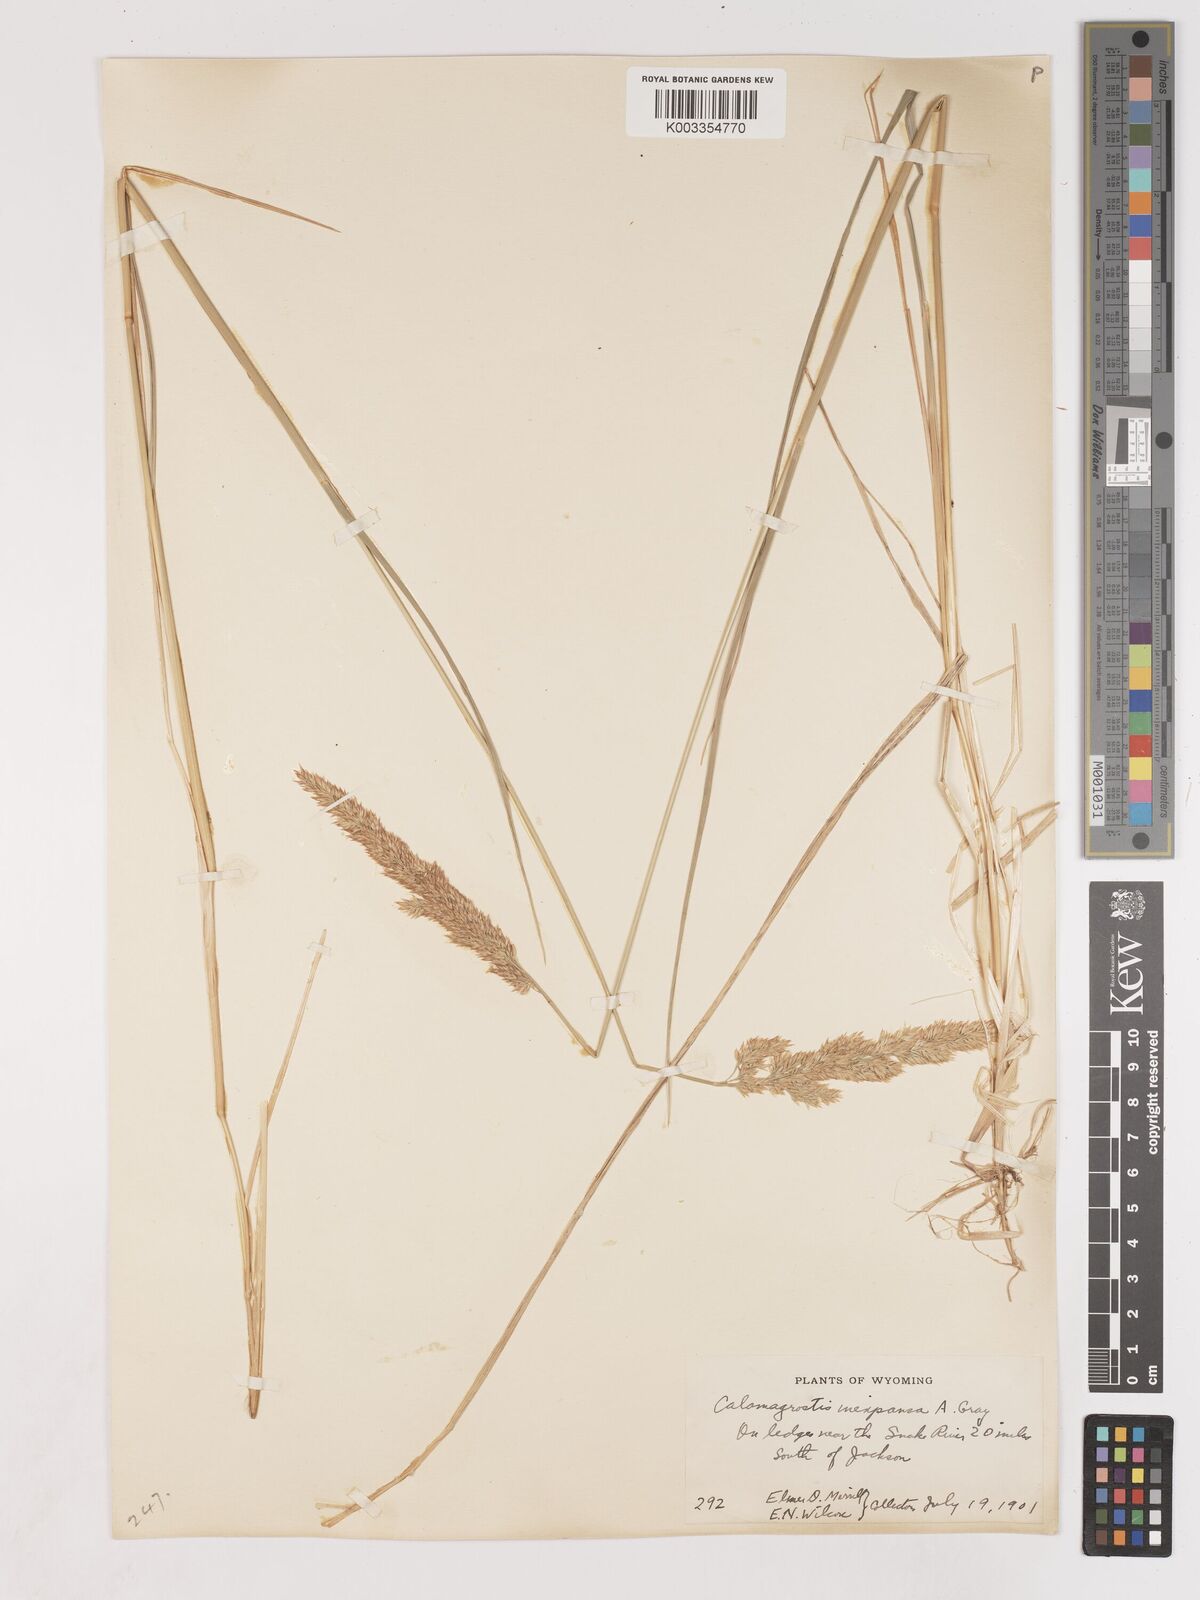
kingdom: Plantae
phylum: Tracheophyta
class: Liliopsida
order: Poales
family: Poaceae
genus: Cinnagrostis
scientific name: Cinnagrostis recta
